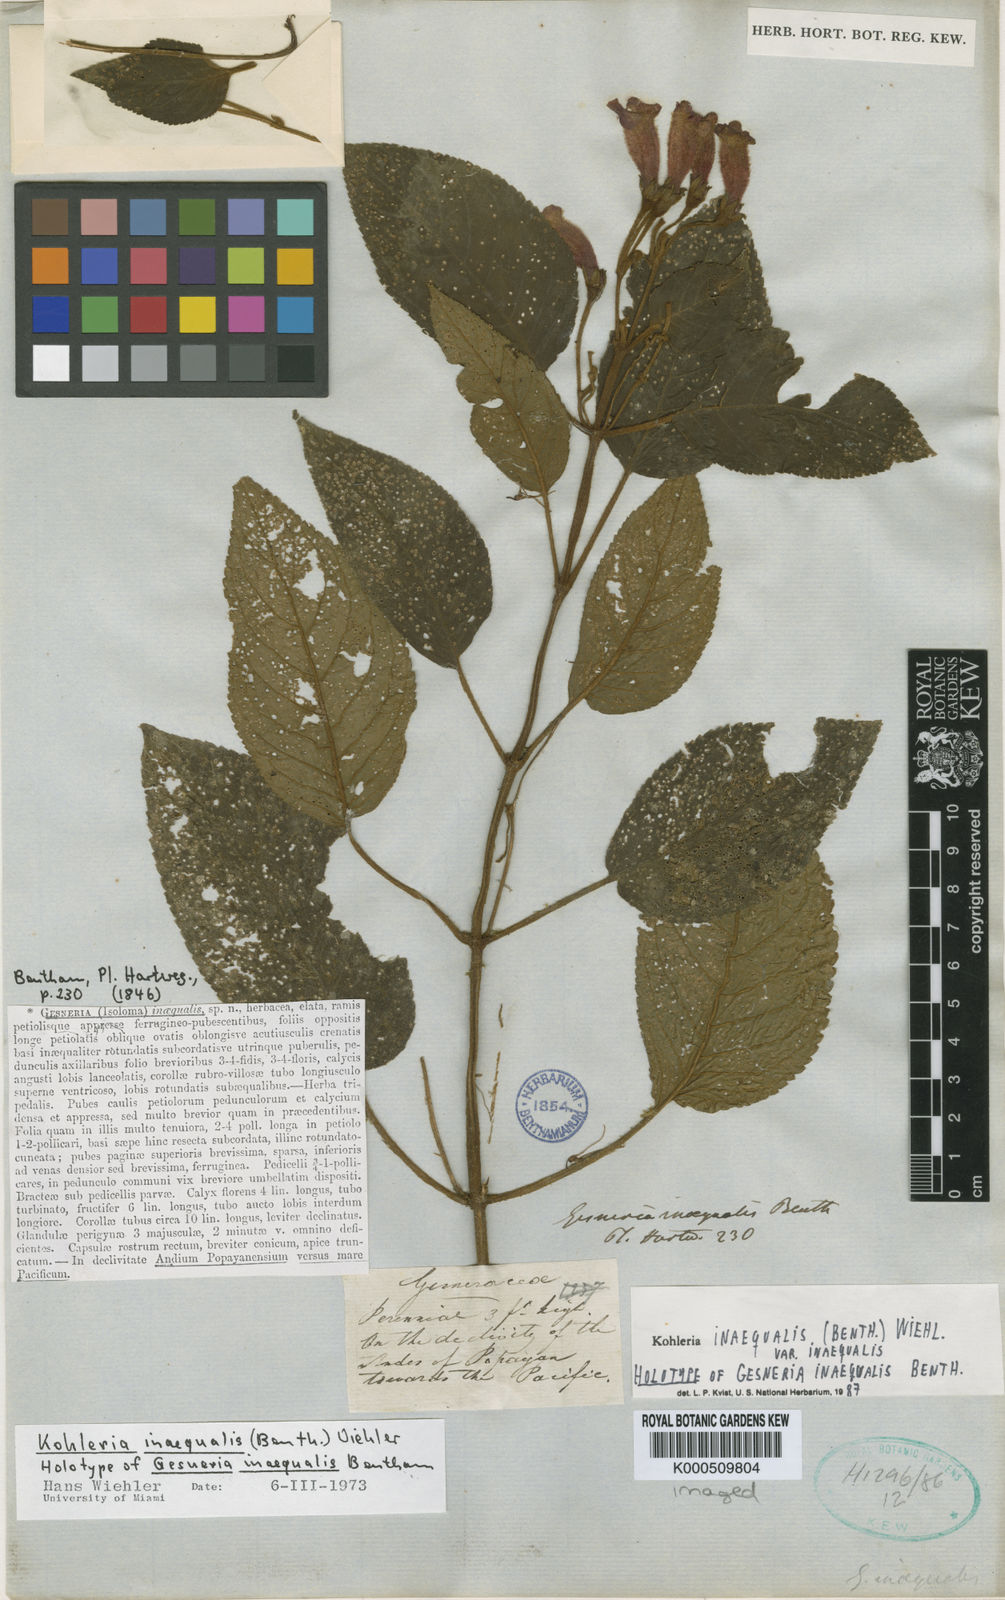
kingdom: Plantae
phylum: Tracheophyta
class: Magnoliopsida
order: Lamiales
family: Gesneriaceae
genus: Kohleria
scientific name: Kohleria inaequalis
